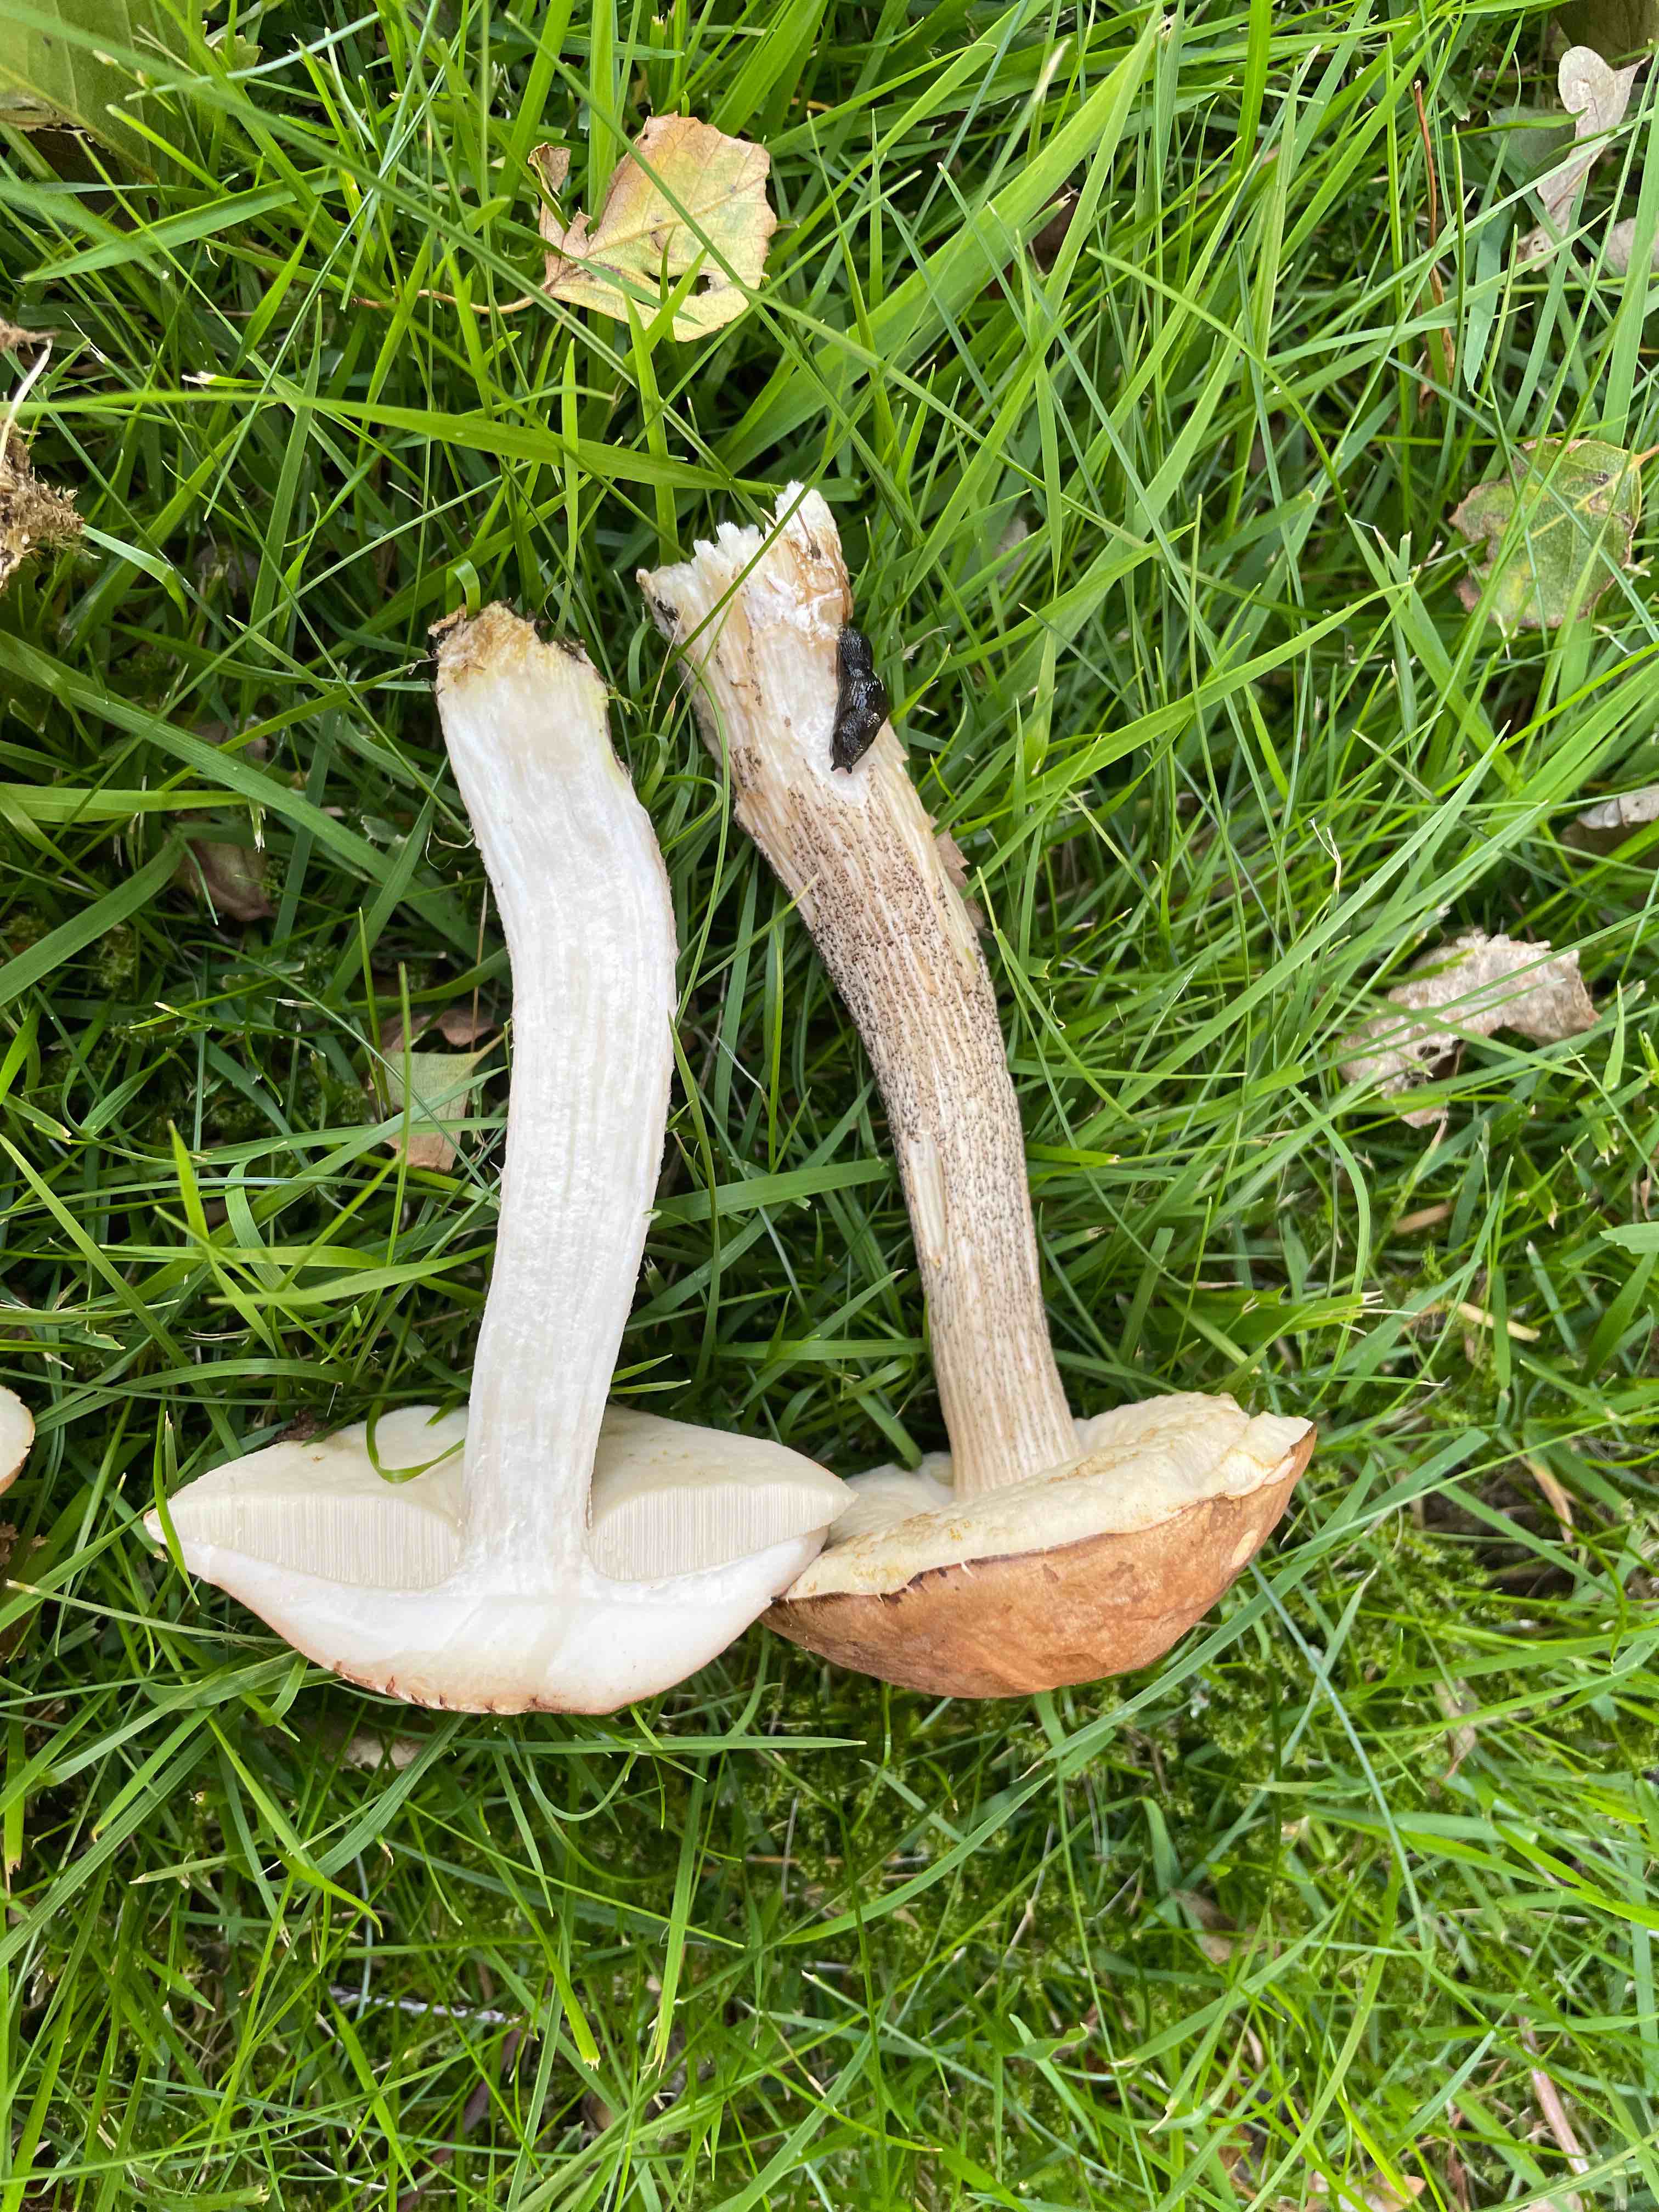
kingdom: Fungi
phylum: Basidiomycota
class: Agaricomycetes
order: Boletales
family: Boletaceae
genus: Leccinum
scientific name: Leccinum
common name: skælrørhat
